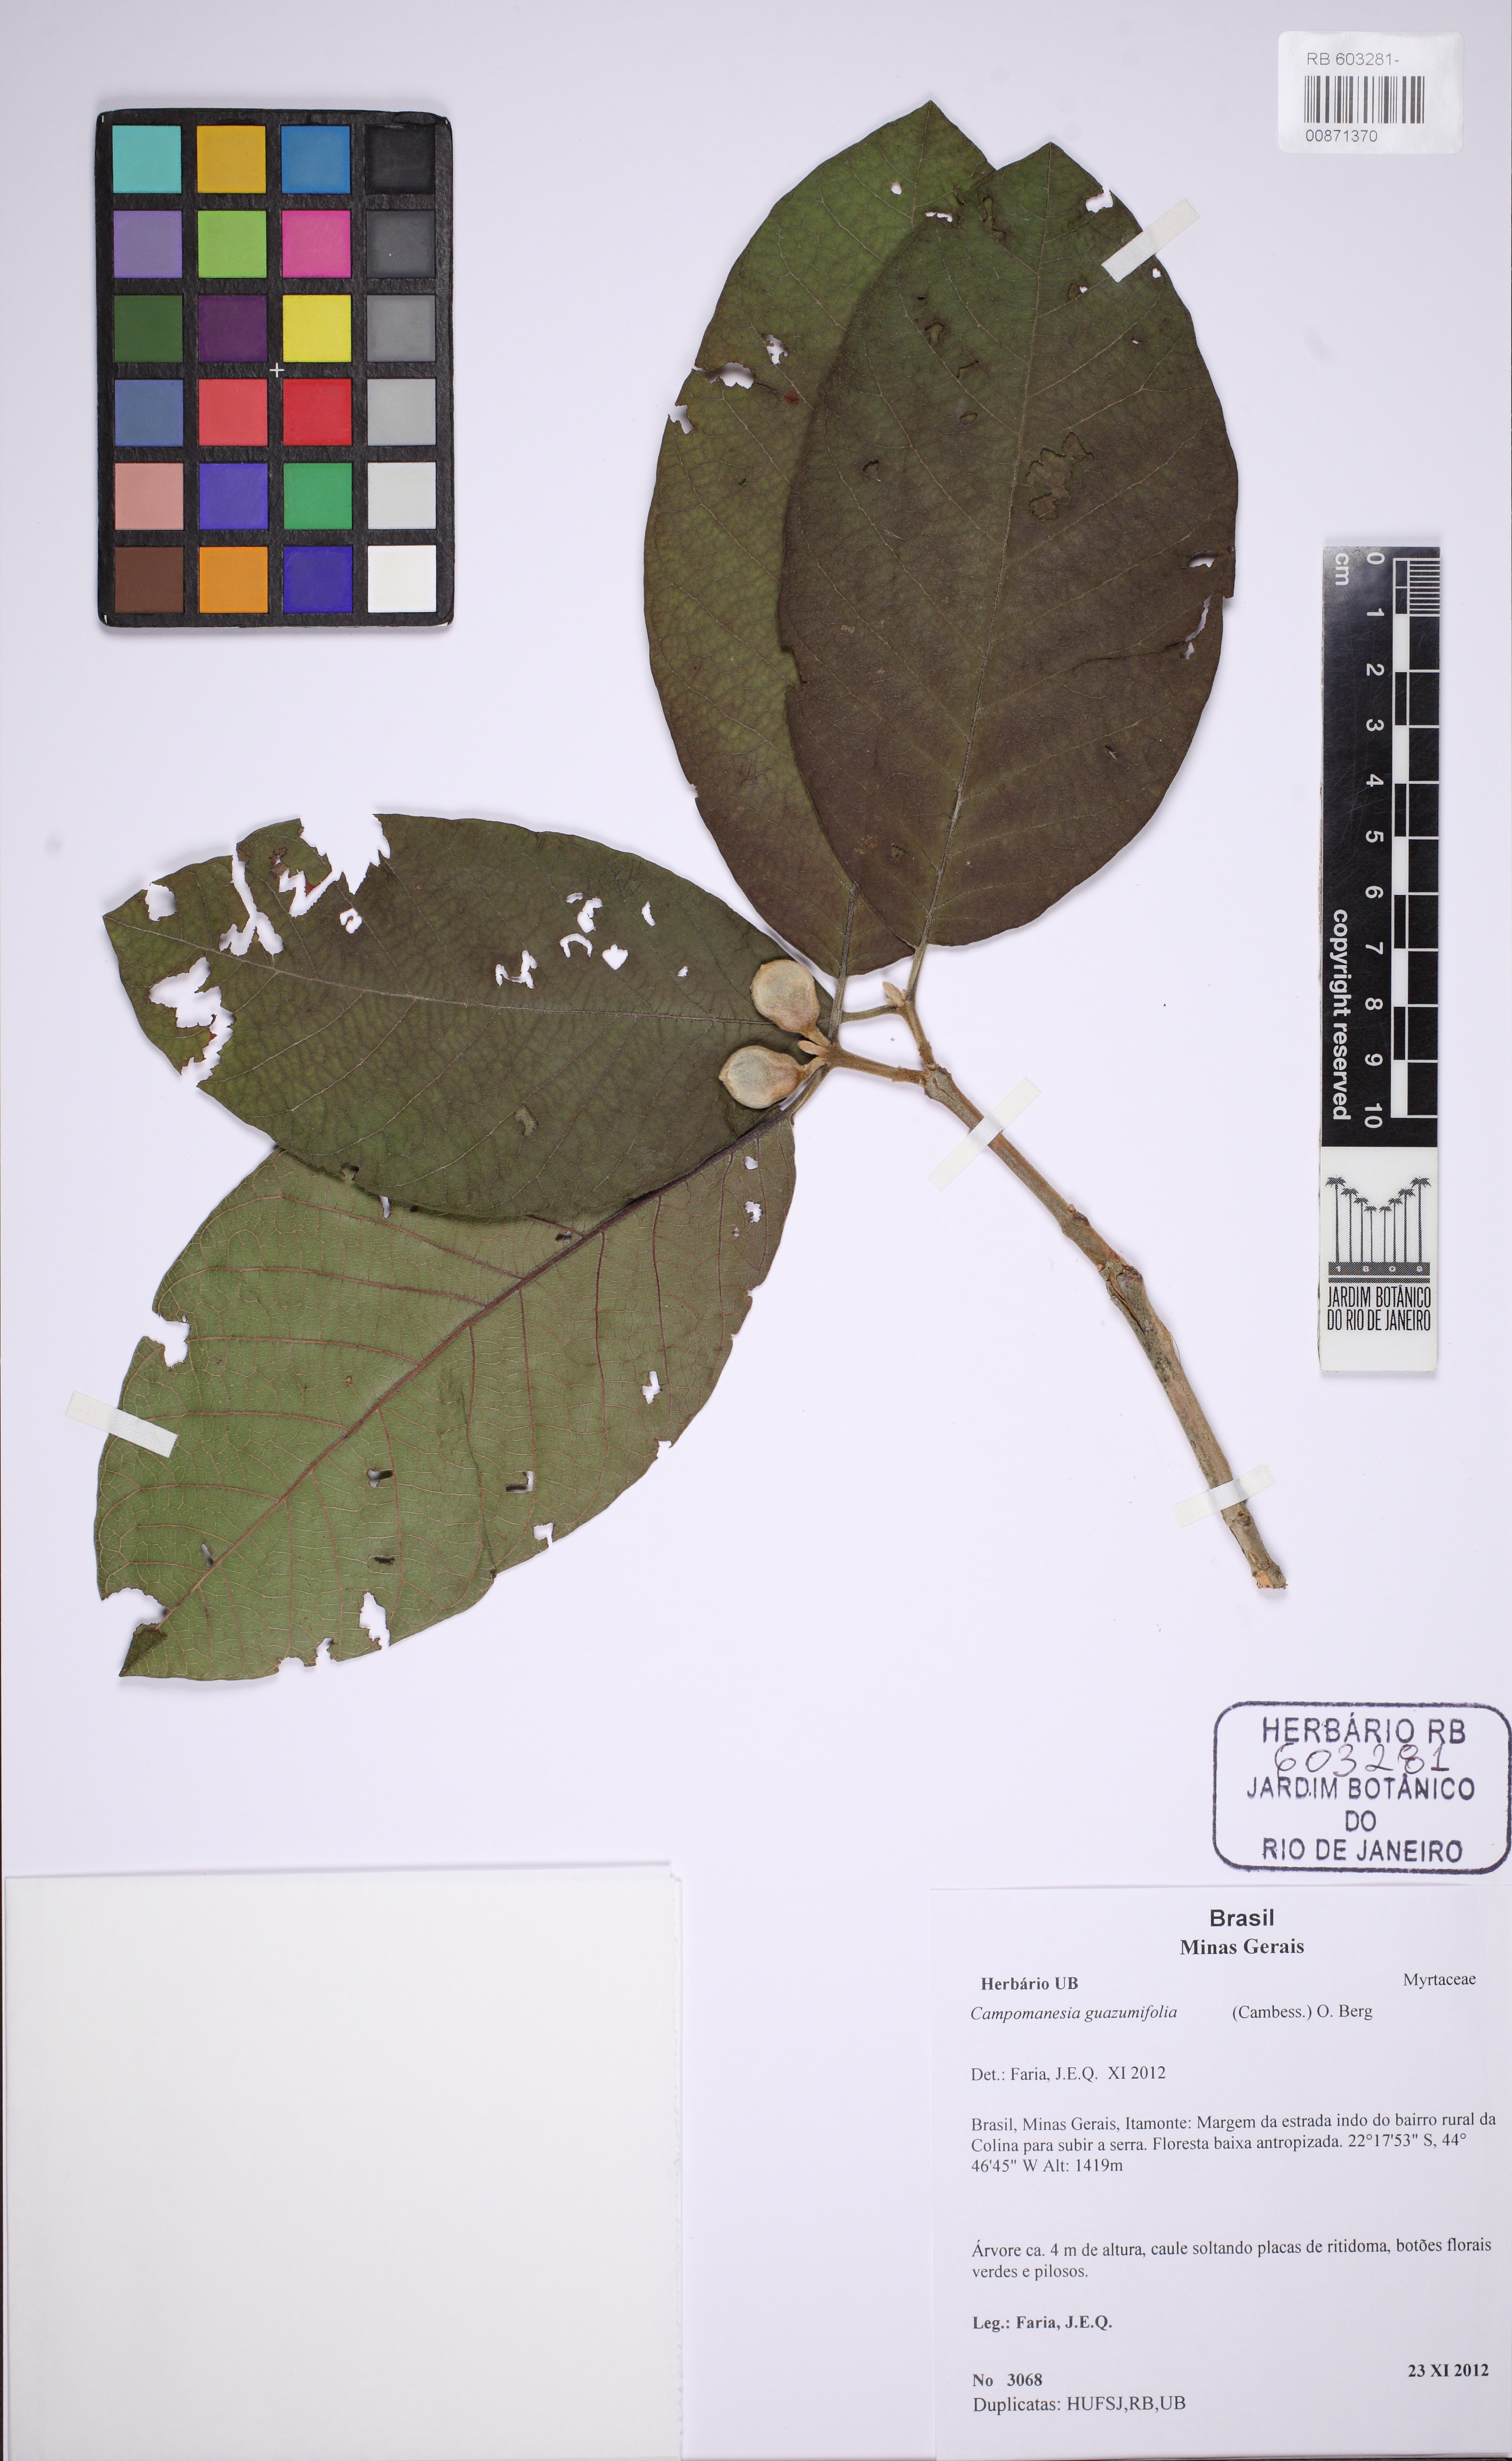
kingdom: Plantae
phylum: Tracheophyta
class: Magnoliopsida
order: Myrtales
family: Myrtaceae
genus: Campomanesia
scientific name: Campomanesia guazumifolia
